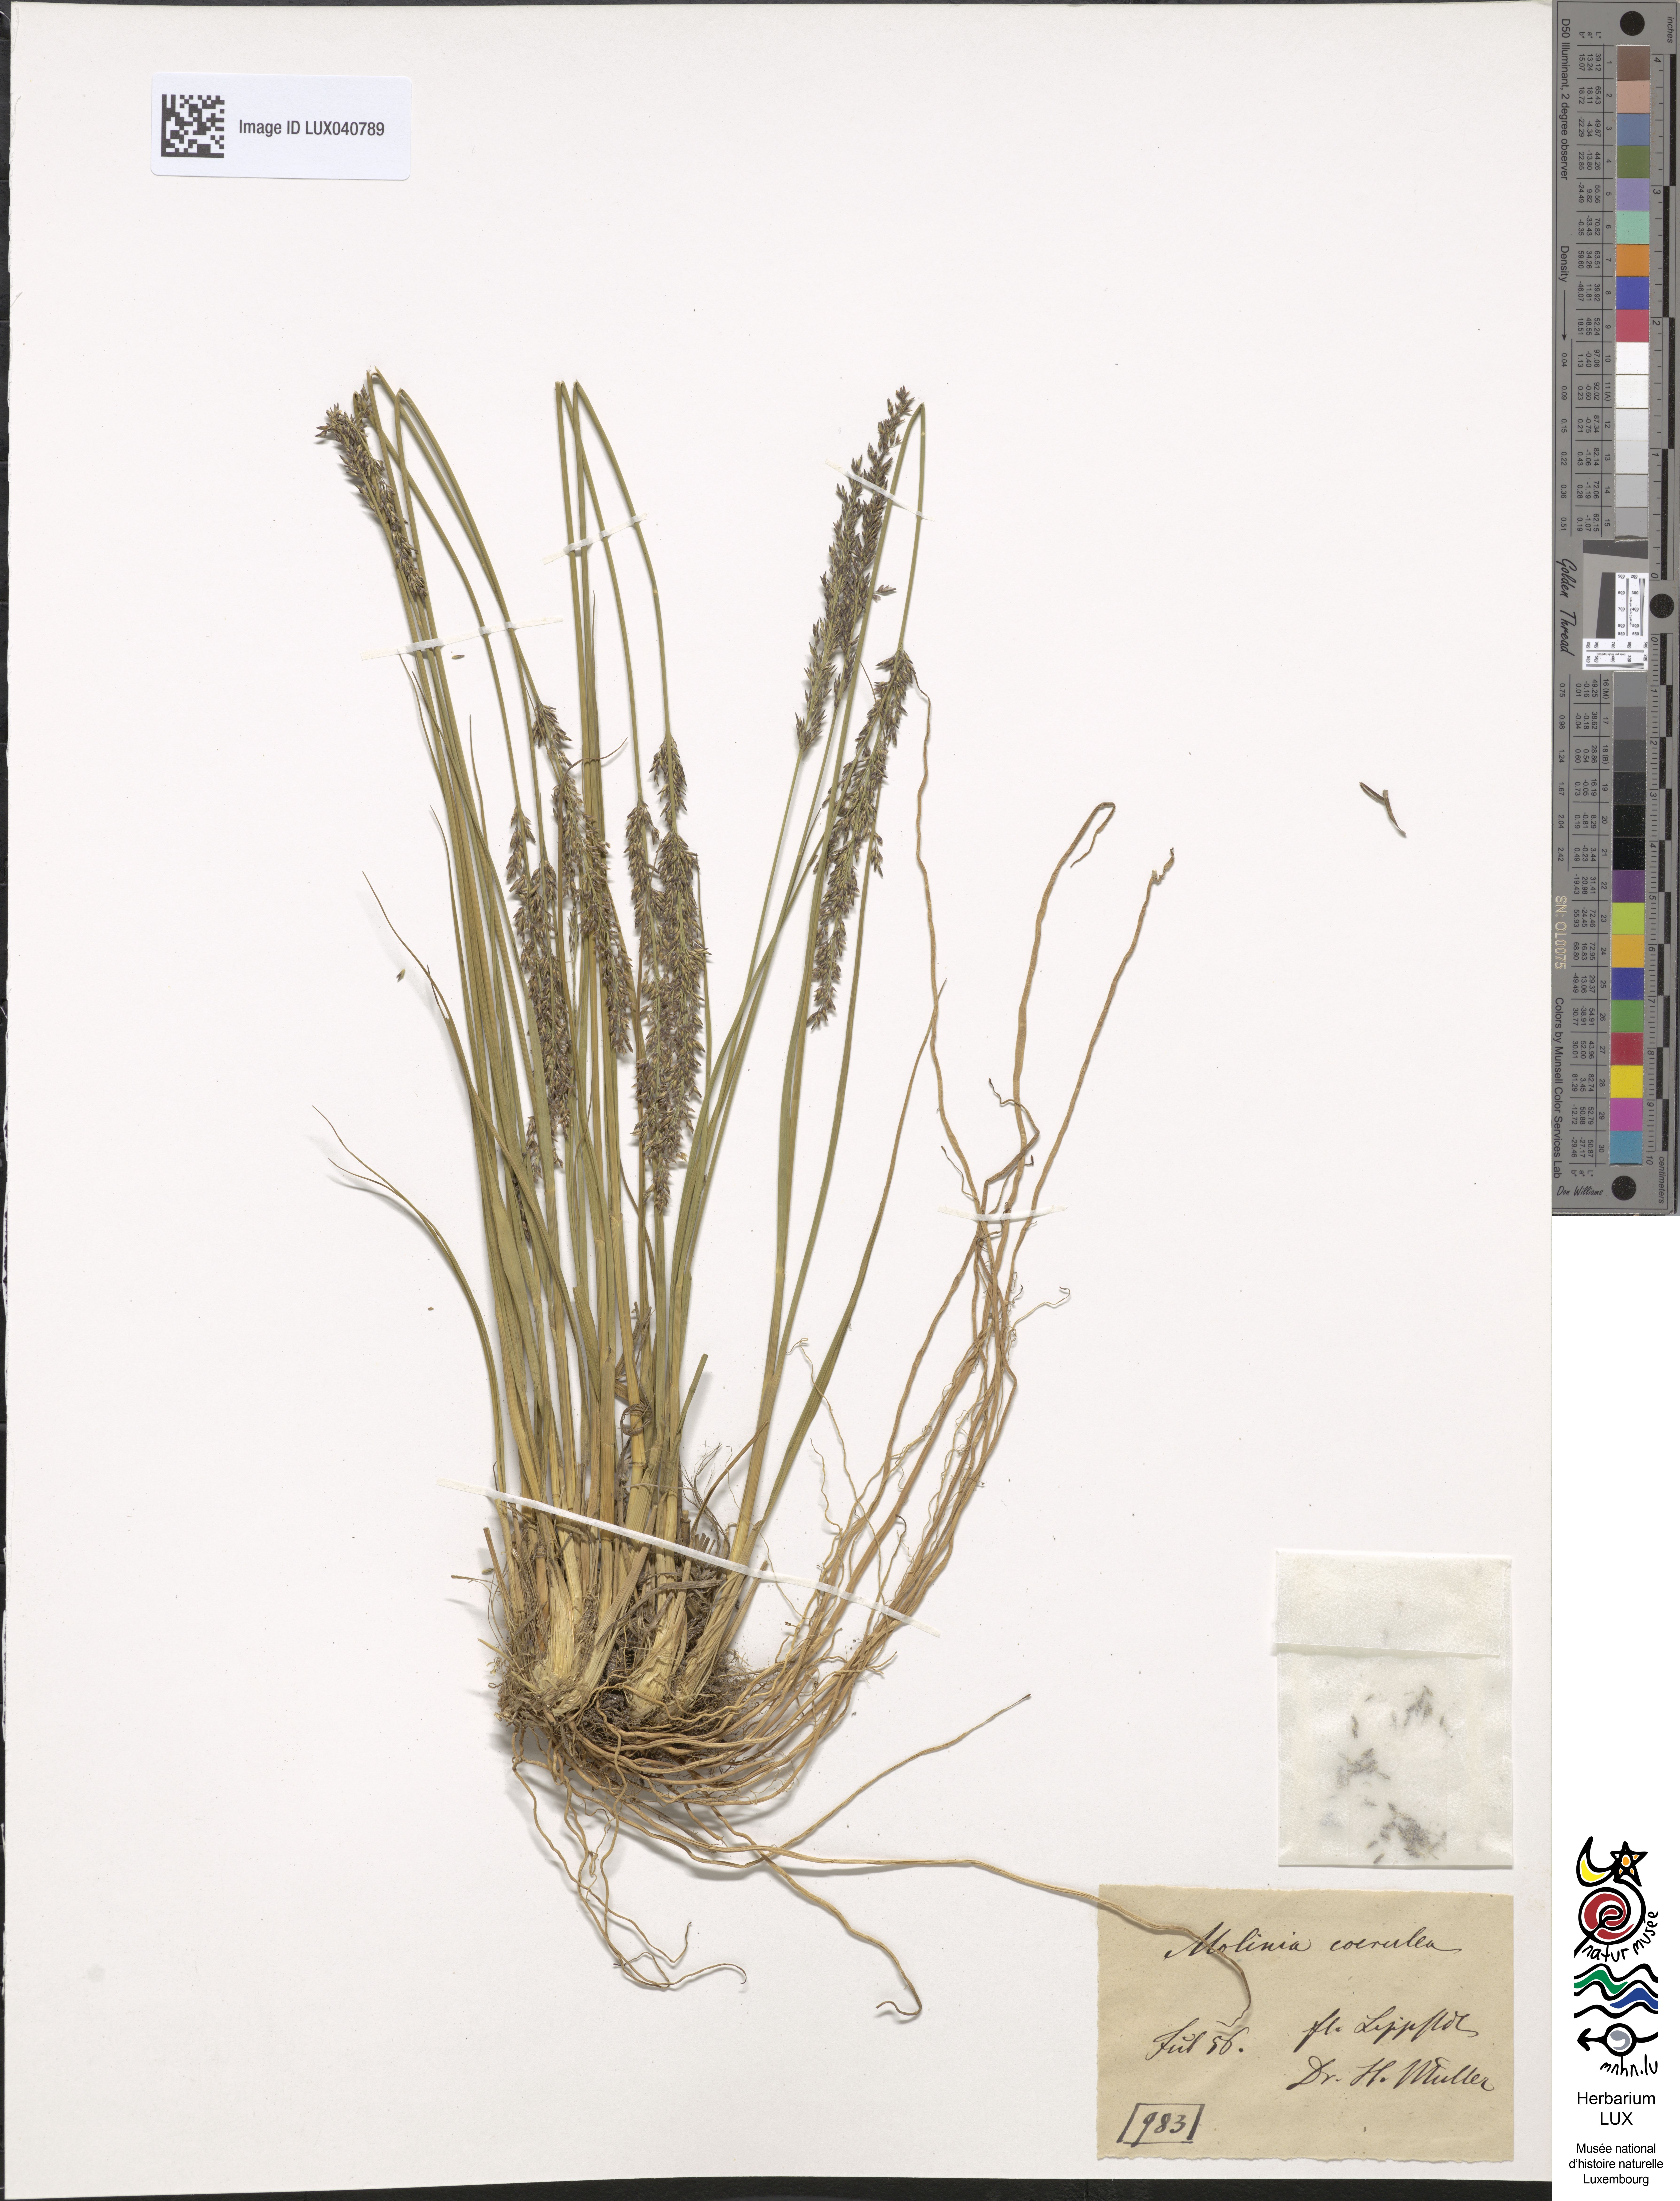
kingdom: Plantae
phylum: Tracheophyta
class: Liliopsida
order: Poales
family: Poaceae
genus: Molinia
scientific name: Molinia caerulea
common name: Purple moor-grass
